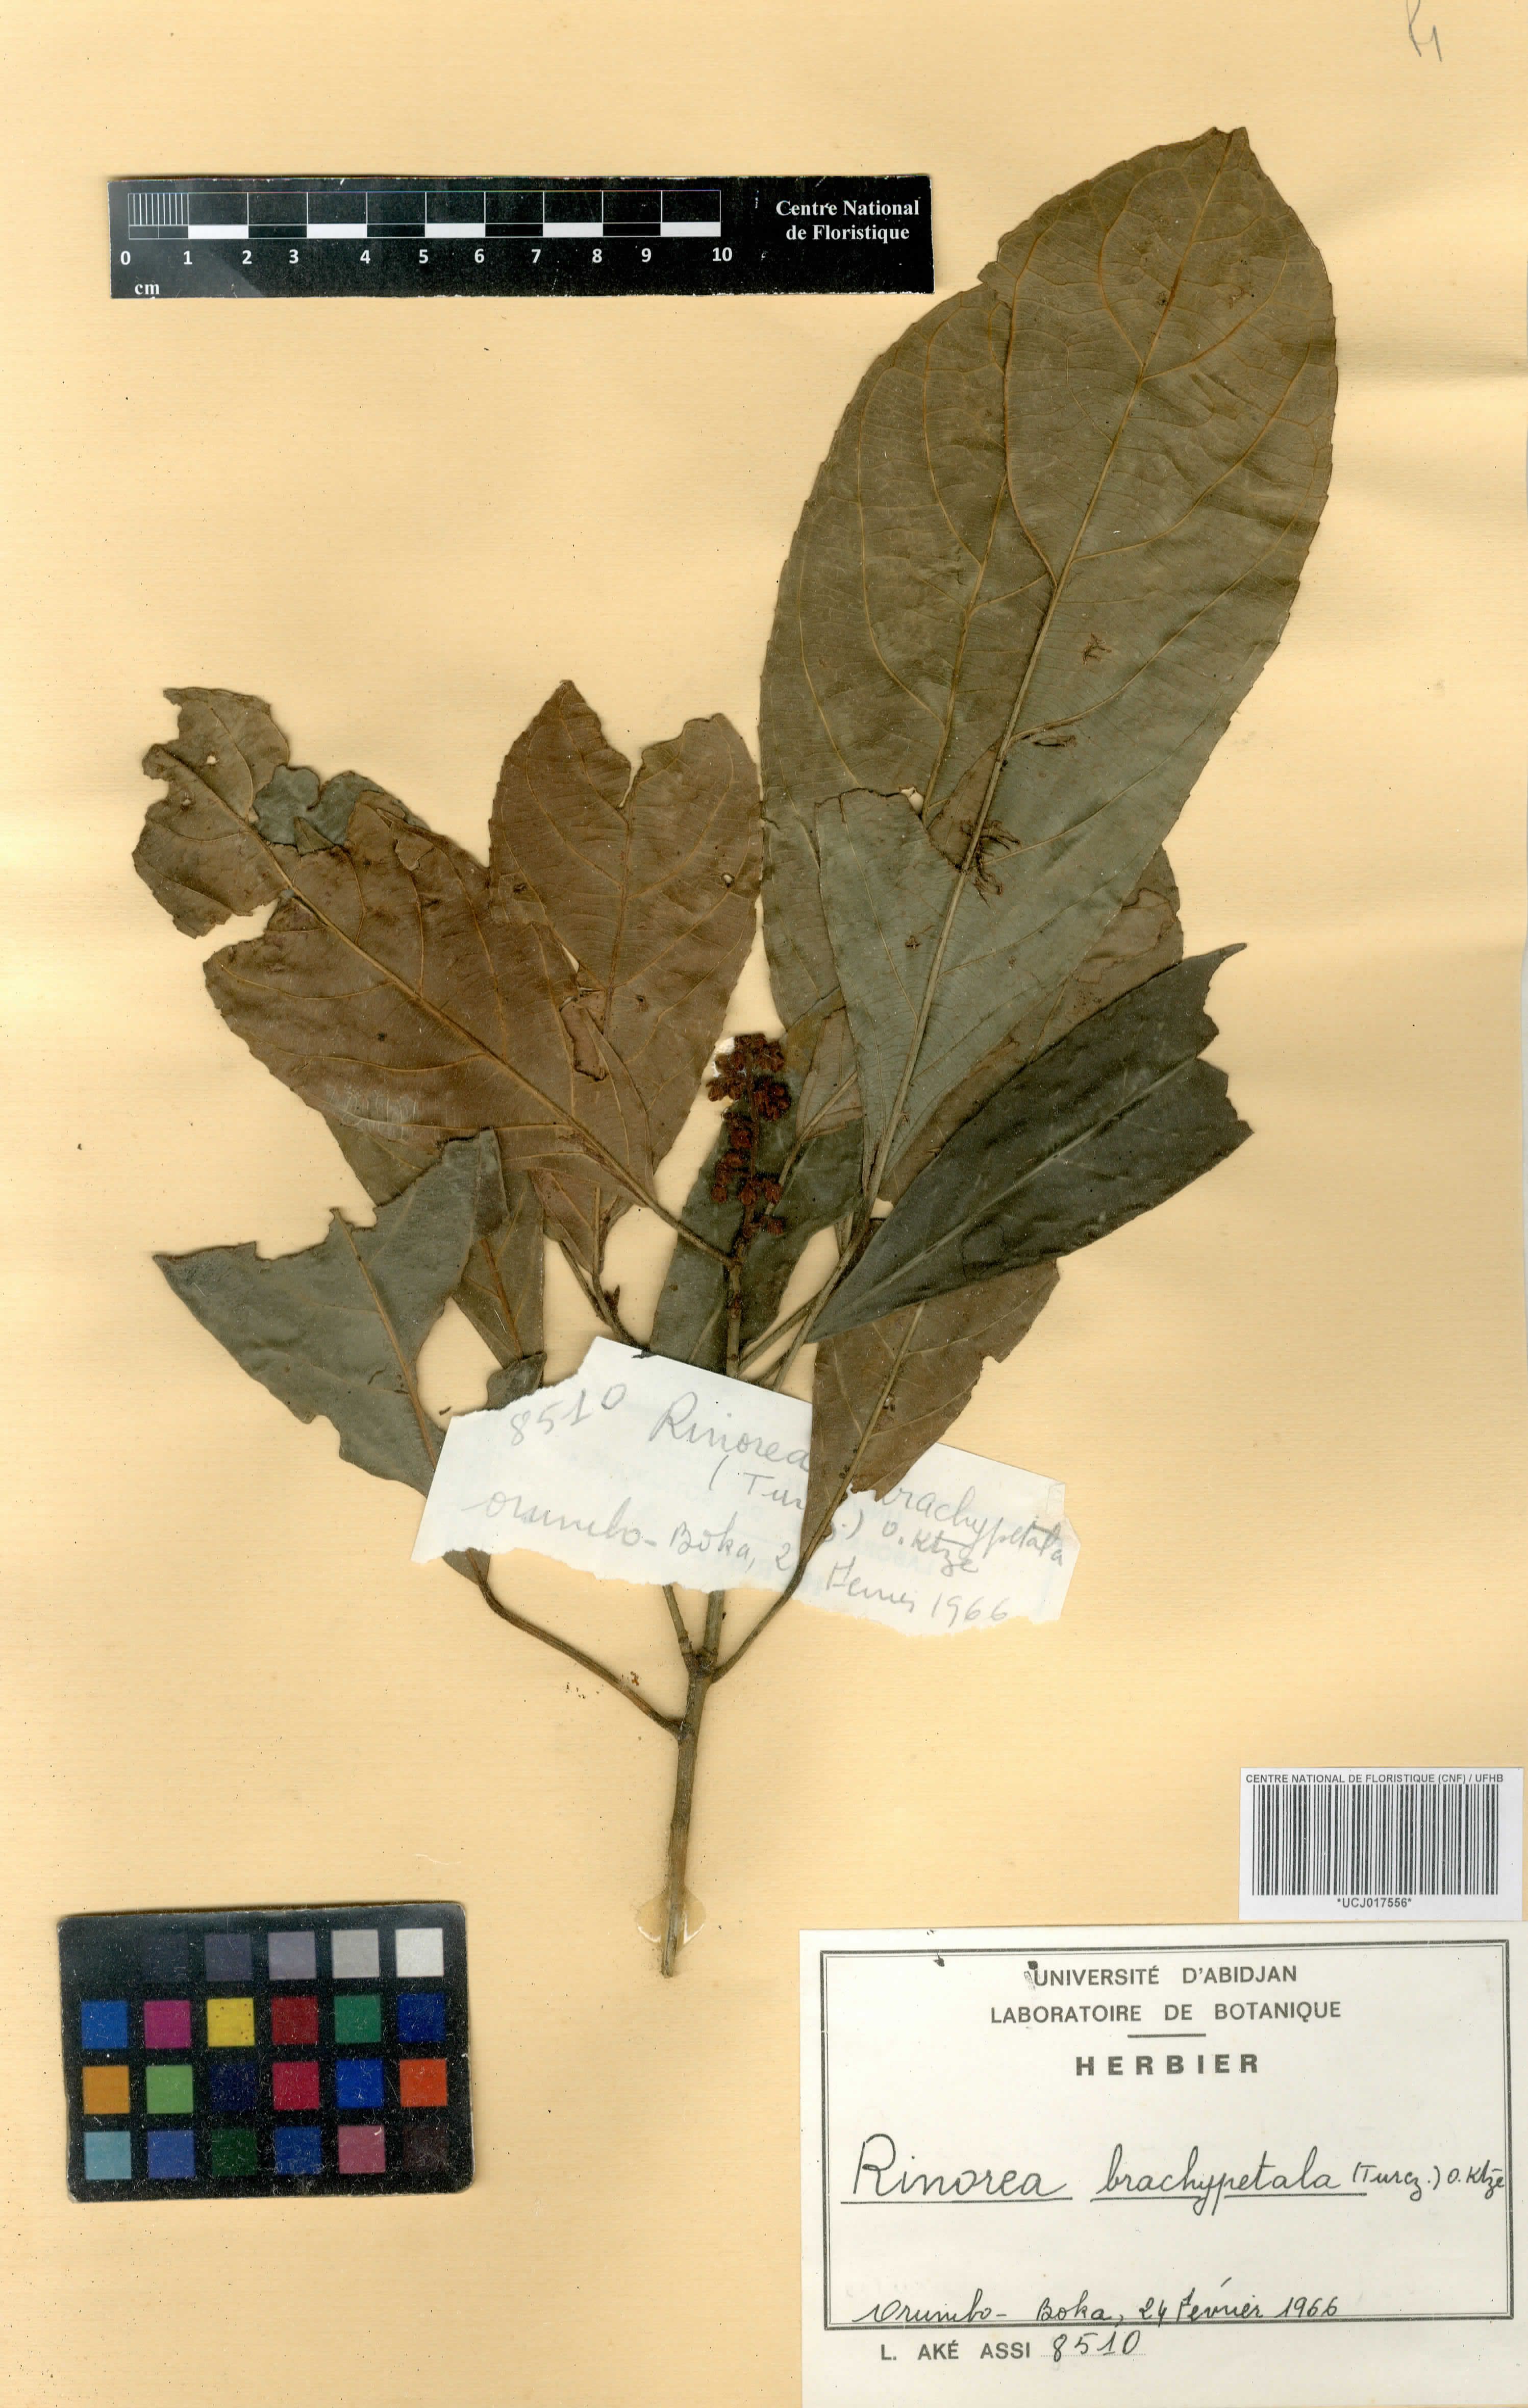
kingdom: Plantae
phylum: Tracheophyta
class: Magnoliopsida
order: Malpighiales
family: Violaceae
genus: Rinorea
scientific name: Rinorea brachypetala
